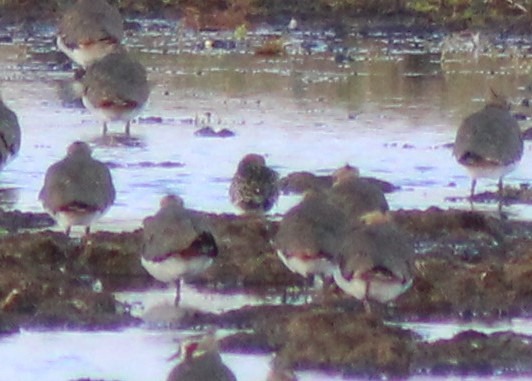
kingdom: Animalia
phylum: Chordata
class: Aves
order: Charadriiformes
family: Scolopacidae
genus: Calidris
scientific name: Calidris falcinellus
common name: Kærløber
